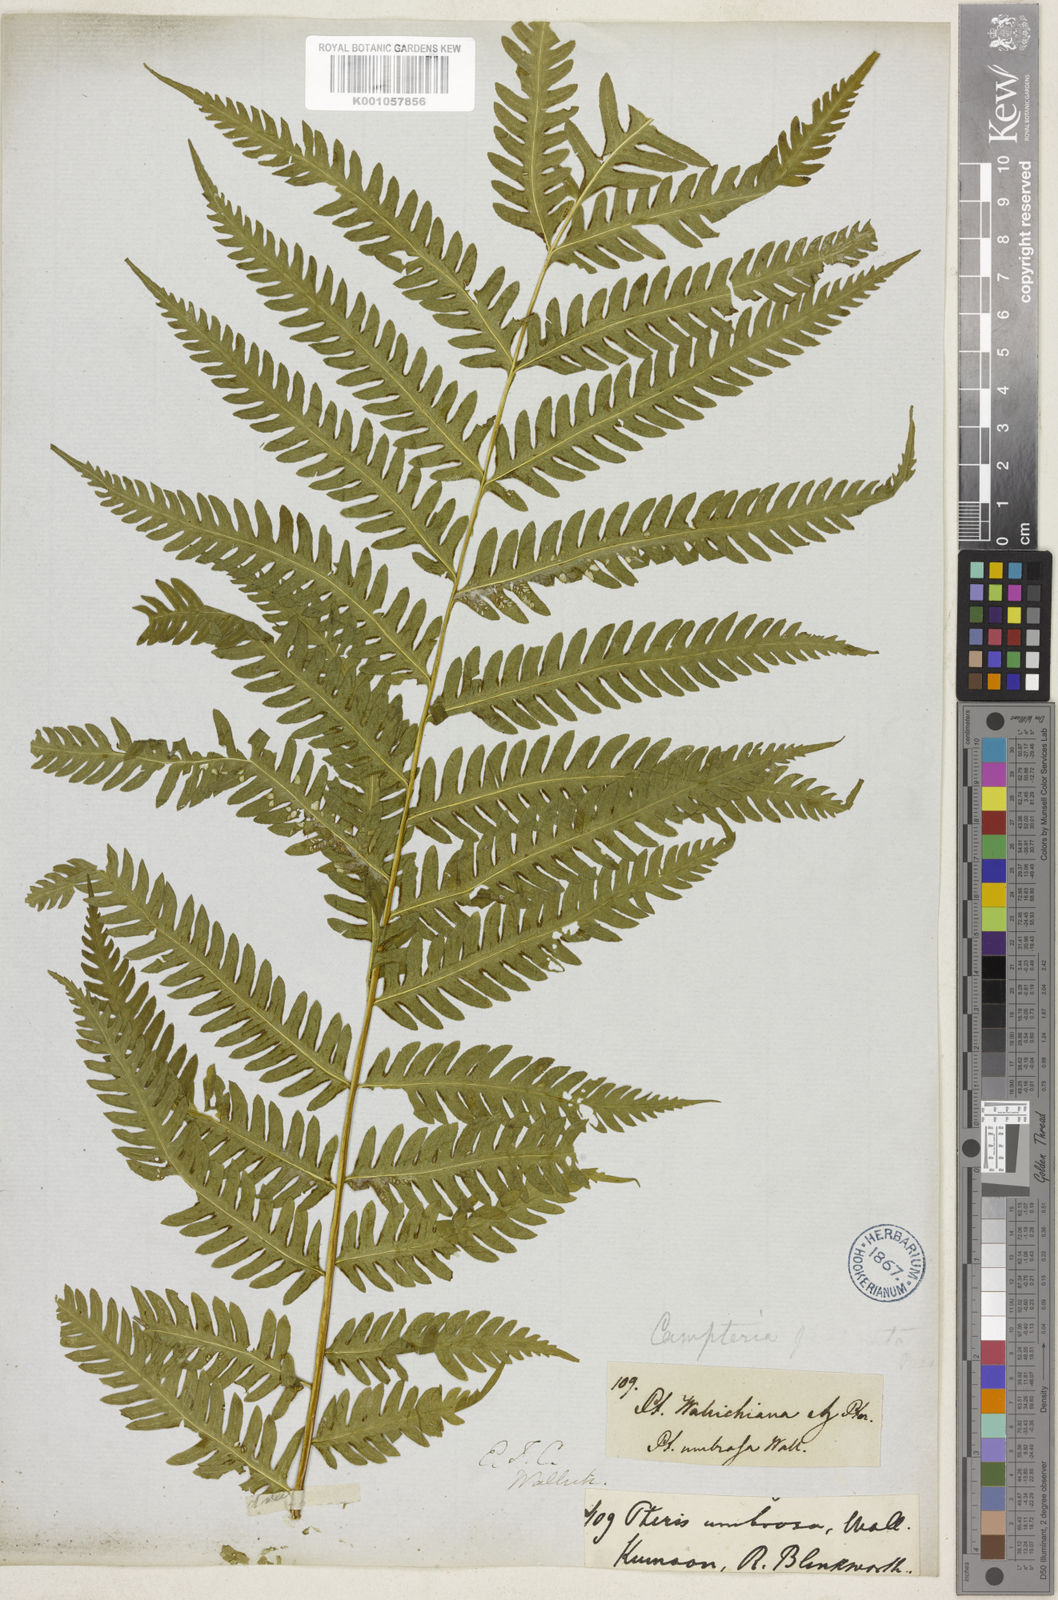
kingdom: Plantae
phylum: Tracheophyta
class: Polypodiopsida
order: Polypodiales
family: Pteridaceae
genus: Pteris
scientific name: Pteris longipes
